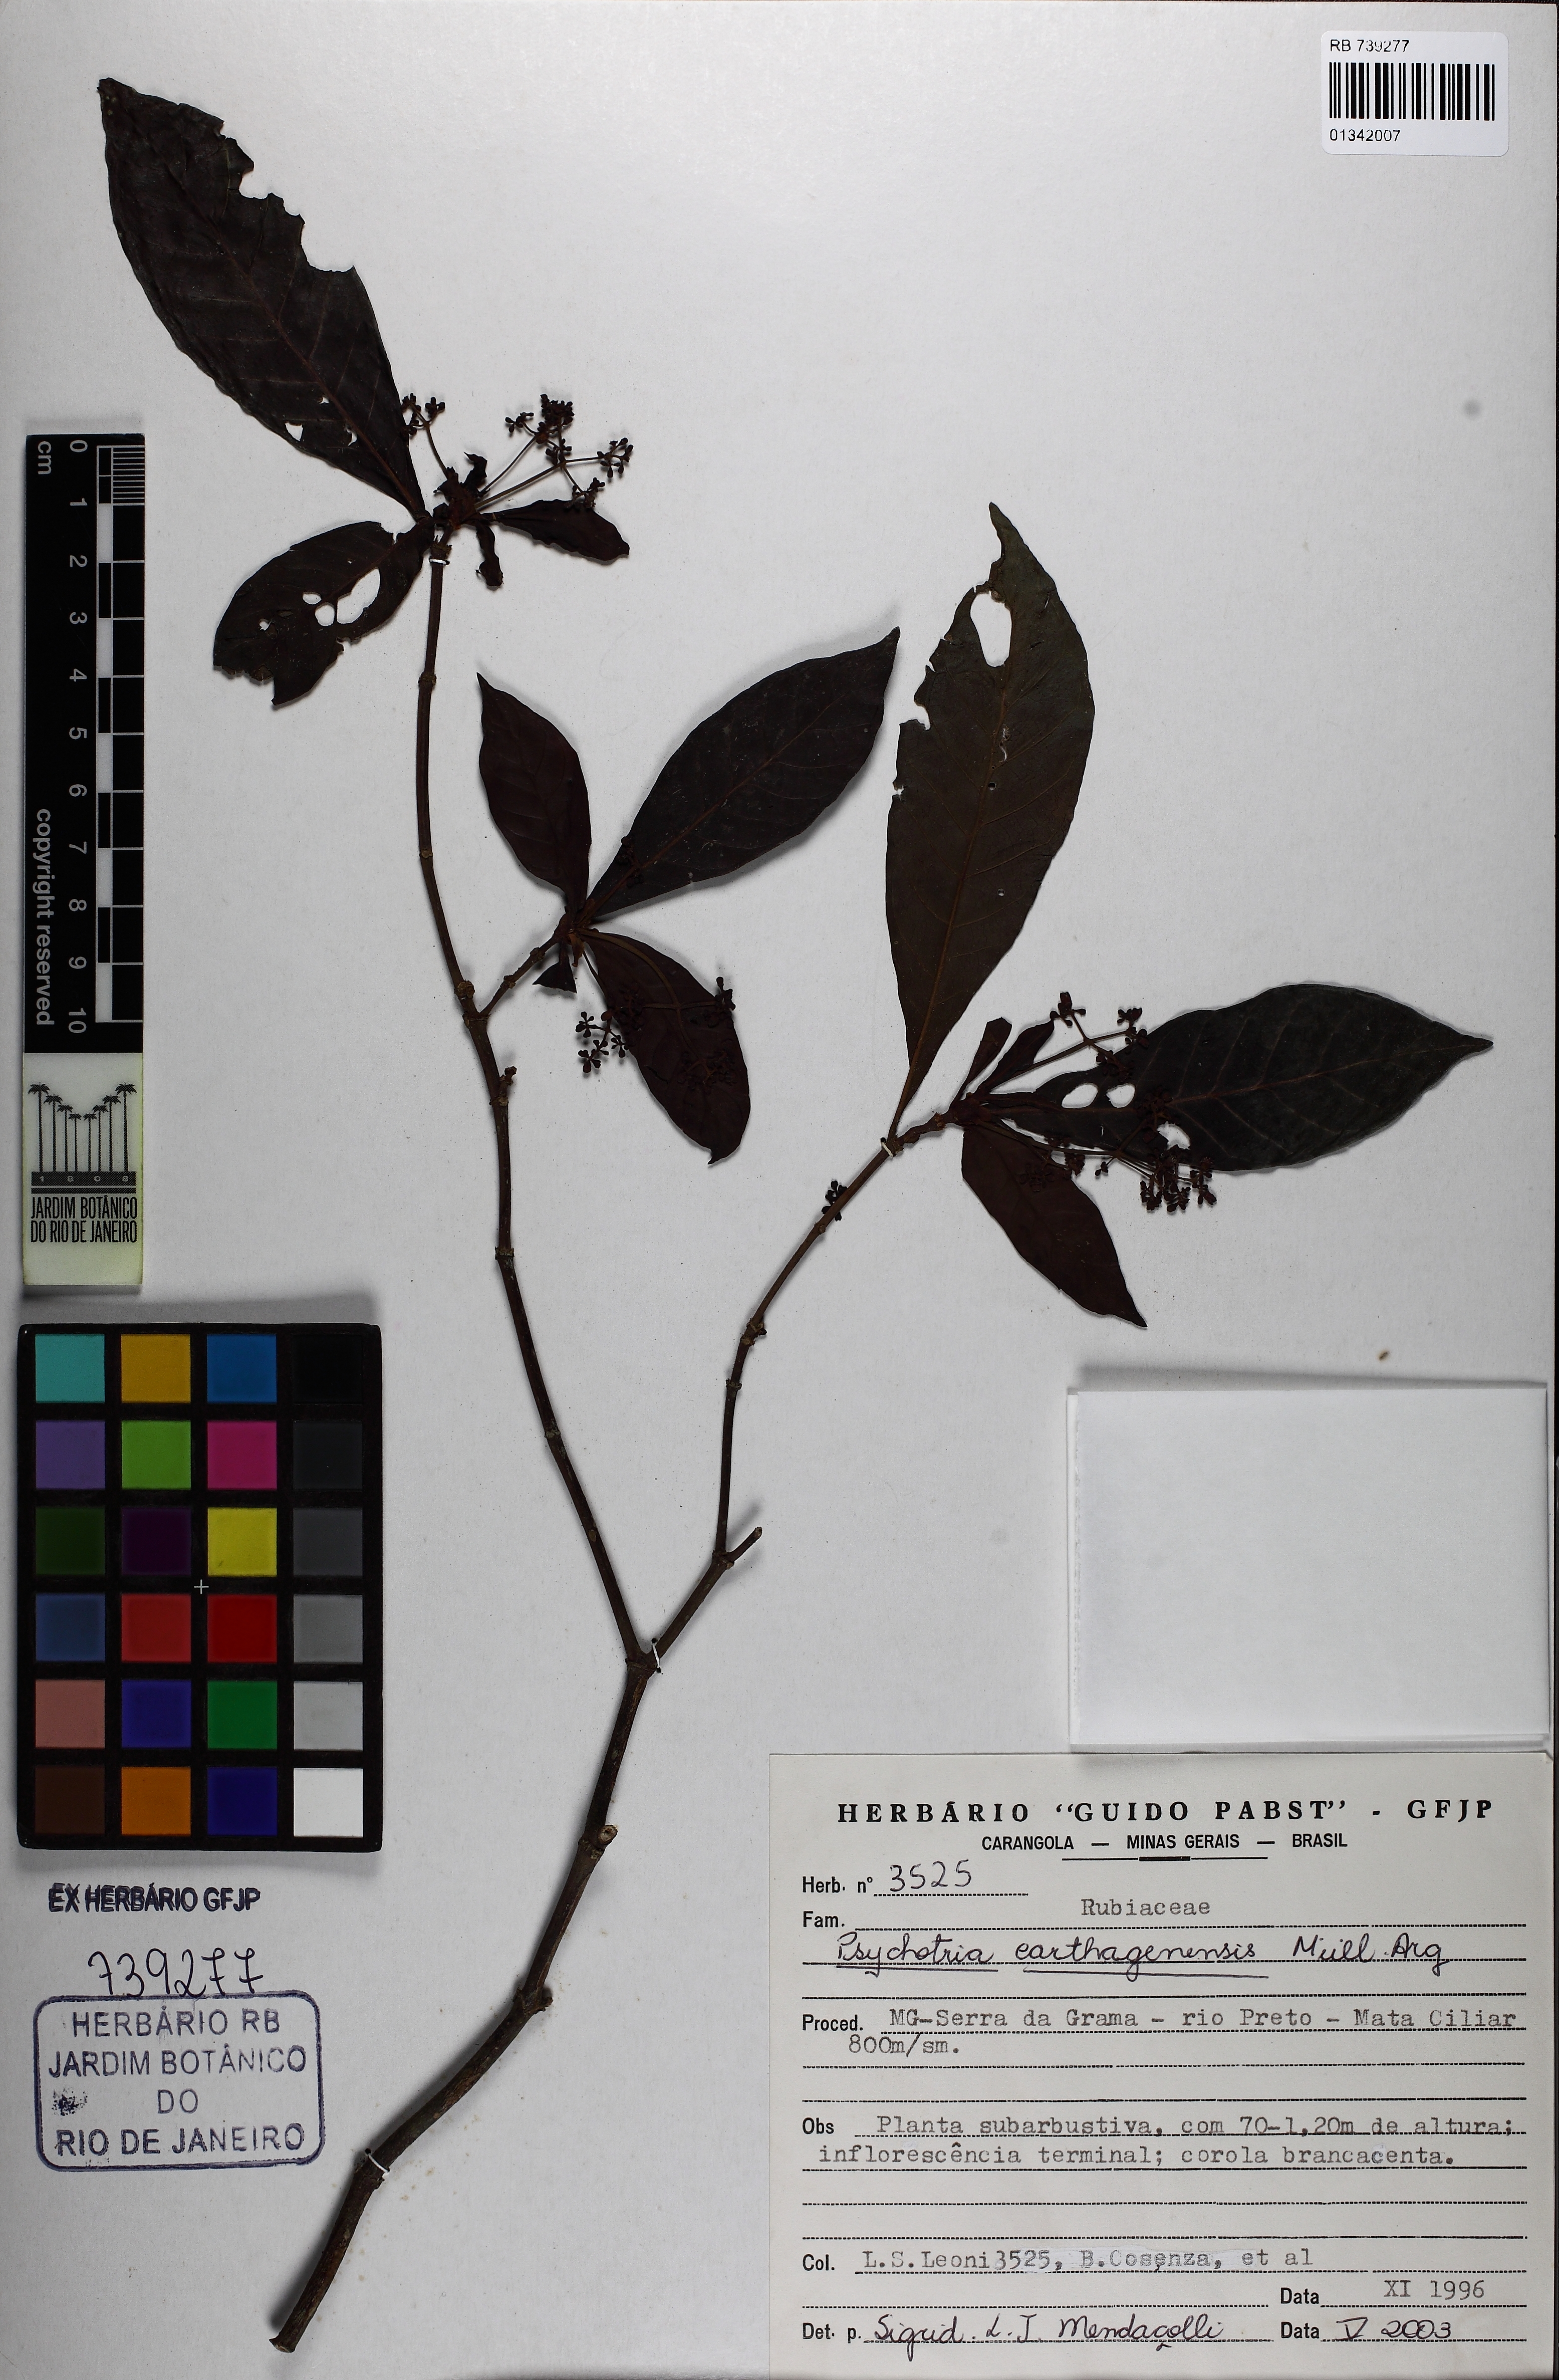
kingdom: Plantae
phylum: Tracheophyta
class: Magnoliopsida
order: Gentianales
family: Rubiaceae
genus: Psychotria
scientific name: Psychotria niveobarbata
